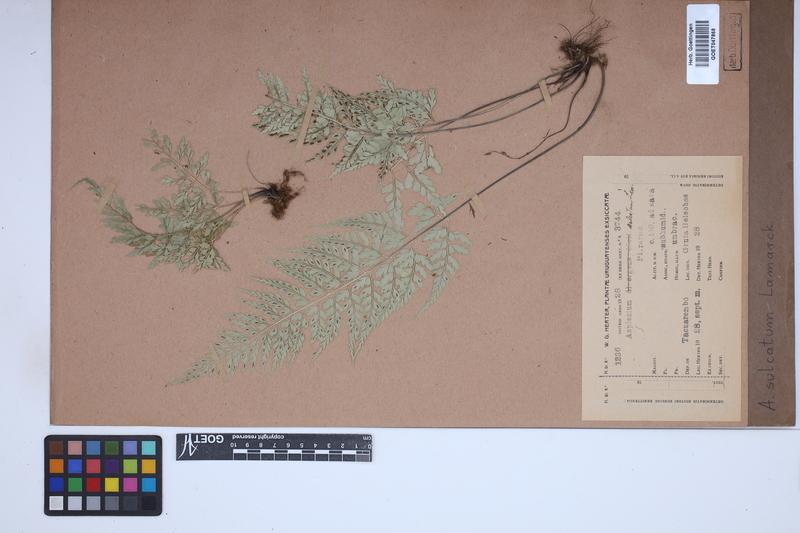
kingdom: Plantae
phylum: Tracheophyta
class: Polypodiopsida
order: Polypodiales
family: Aspleniaceae
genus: Asplenium
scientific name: Asplenium sulcatum
